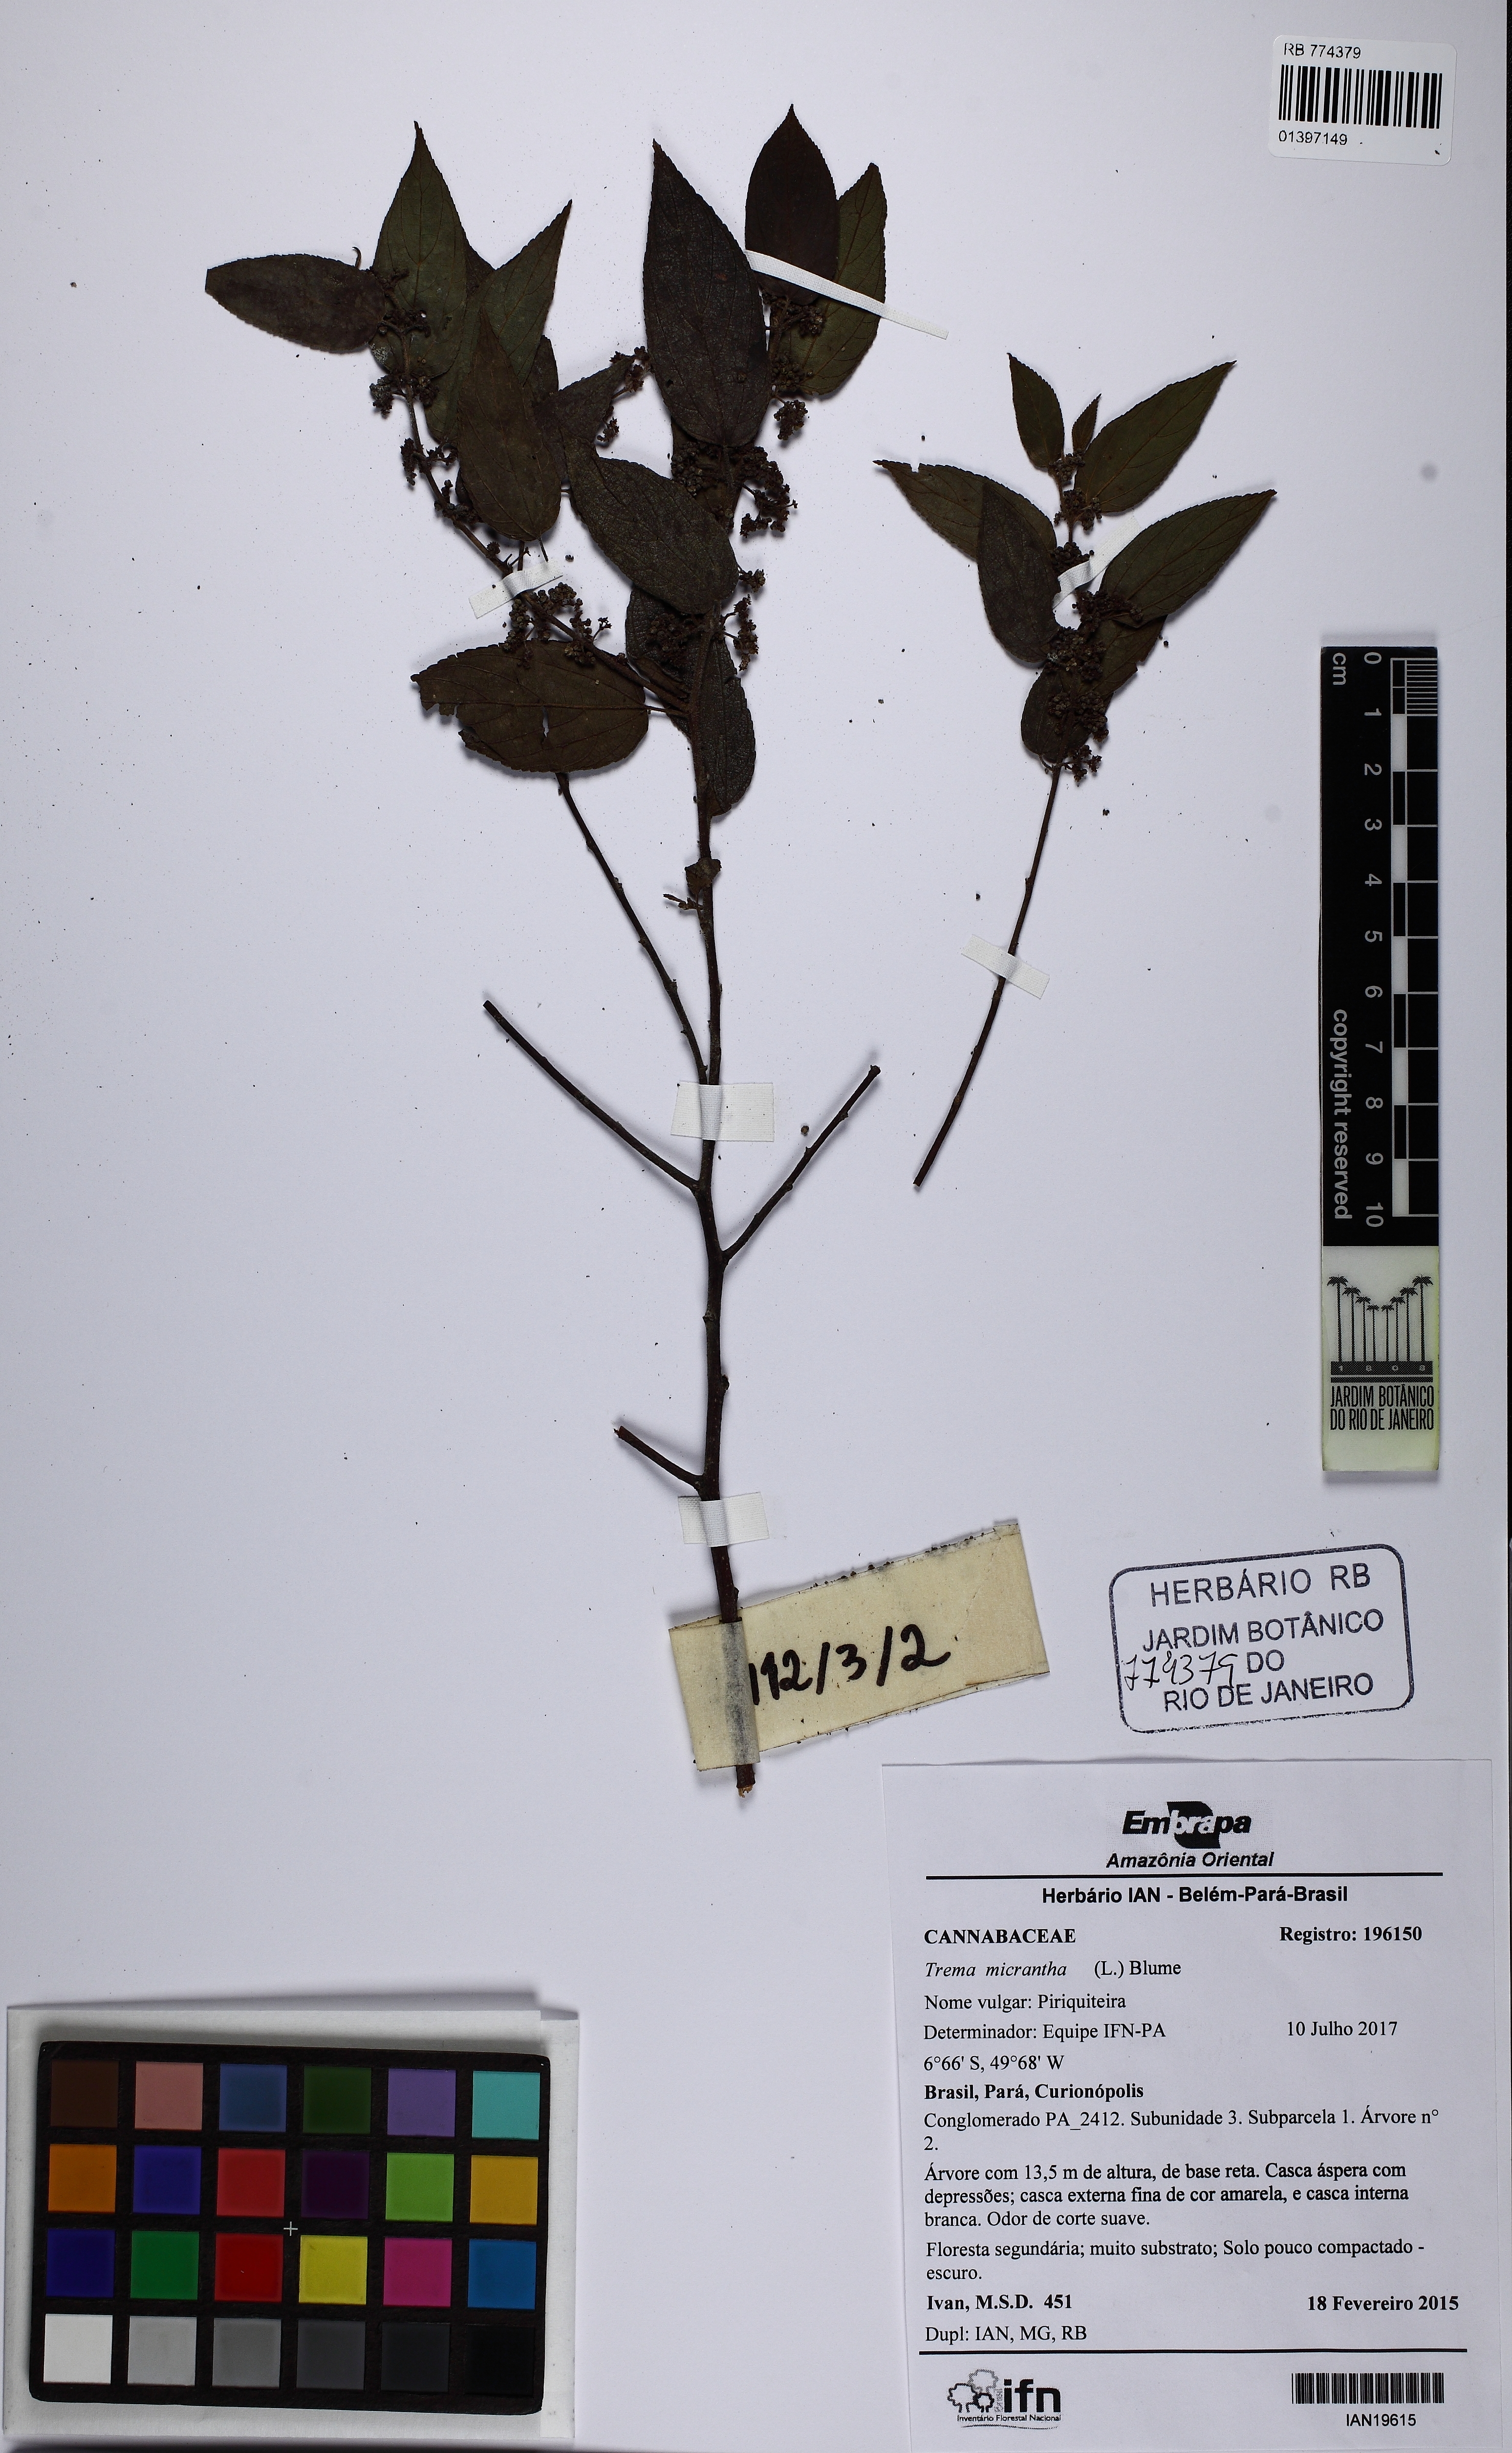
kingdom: Plantae
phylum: Tracheophyta
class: Magnoliopsida
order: Rosales
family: Cannabaceae
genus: Trema
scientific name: Trema micranthum
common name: Jamaican nettletree
